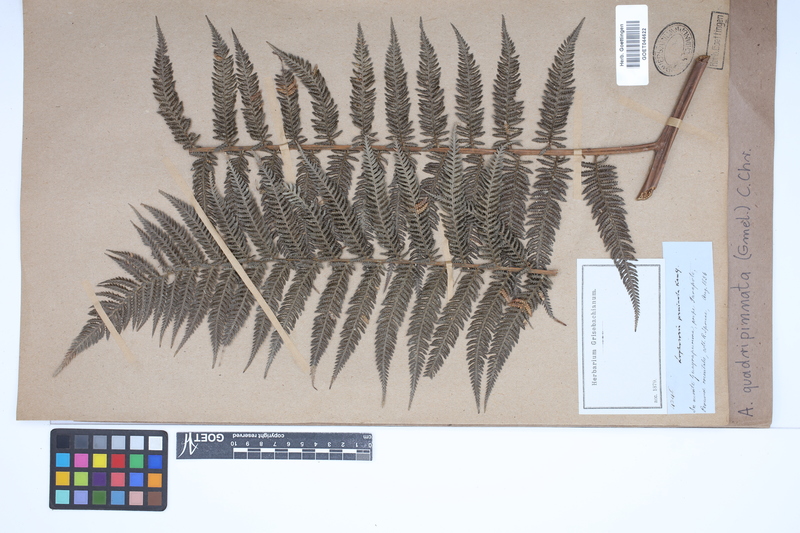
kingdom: Plantae
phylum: Tracheophyta
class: Polypodiopsida
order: Cyatheales
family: Dicksoniaceae
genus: Lophosoria
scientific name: Lophosoria quadripinnata
